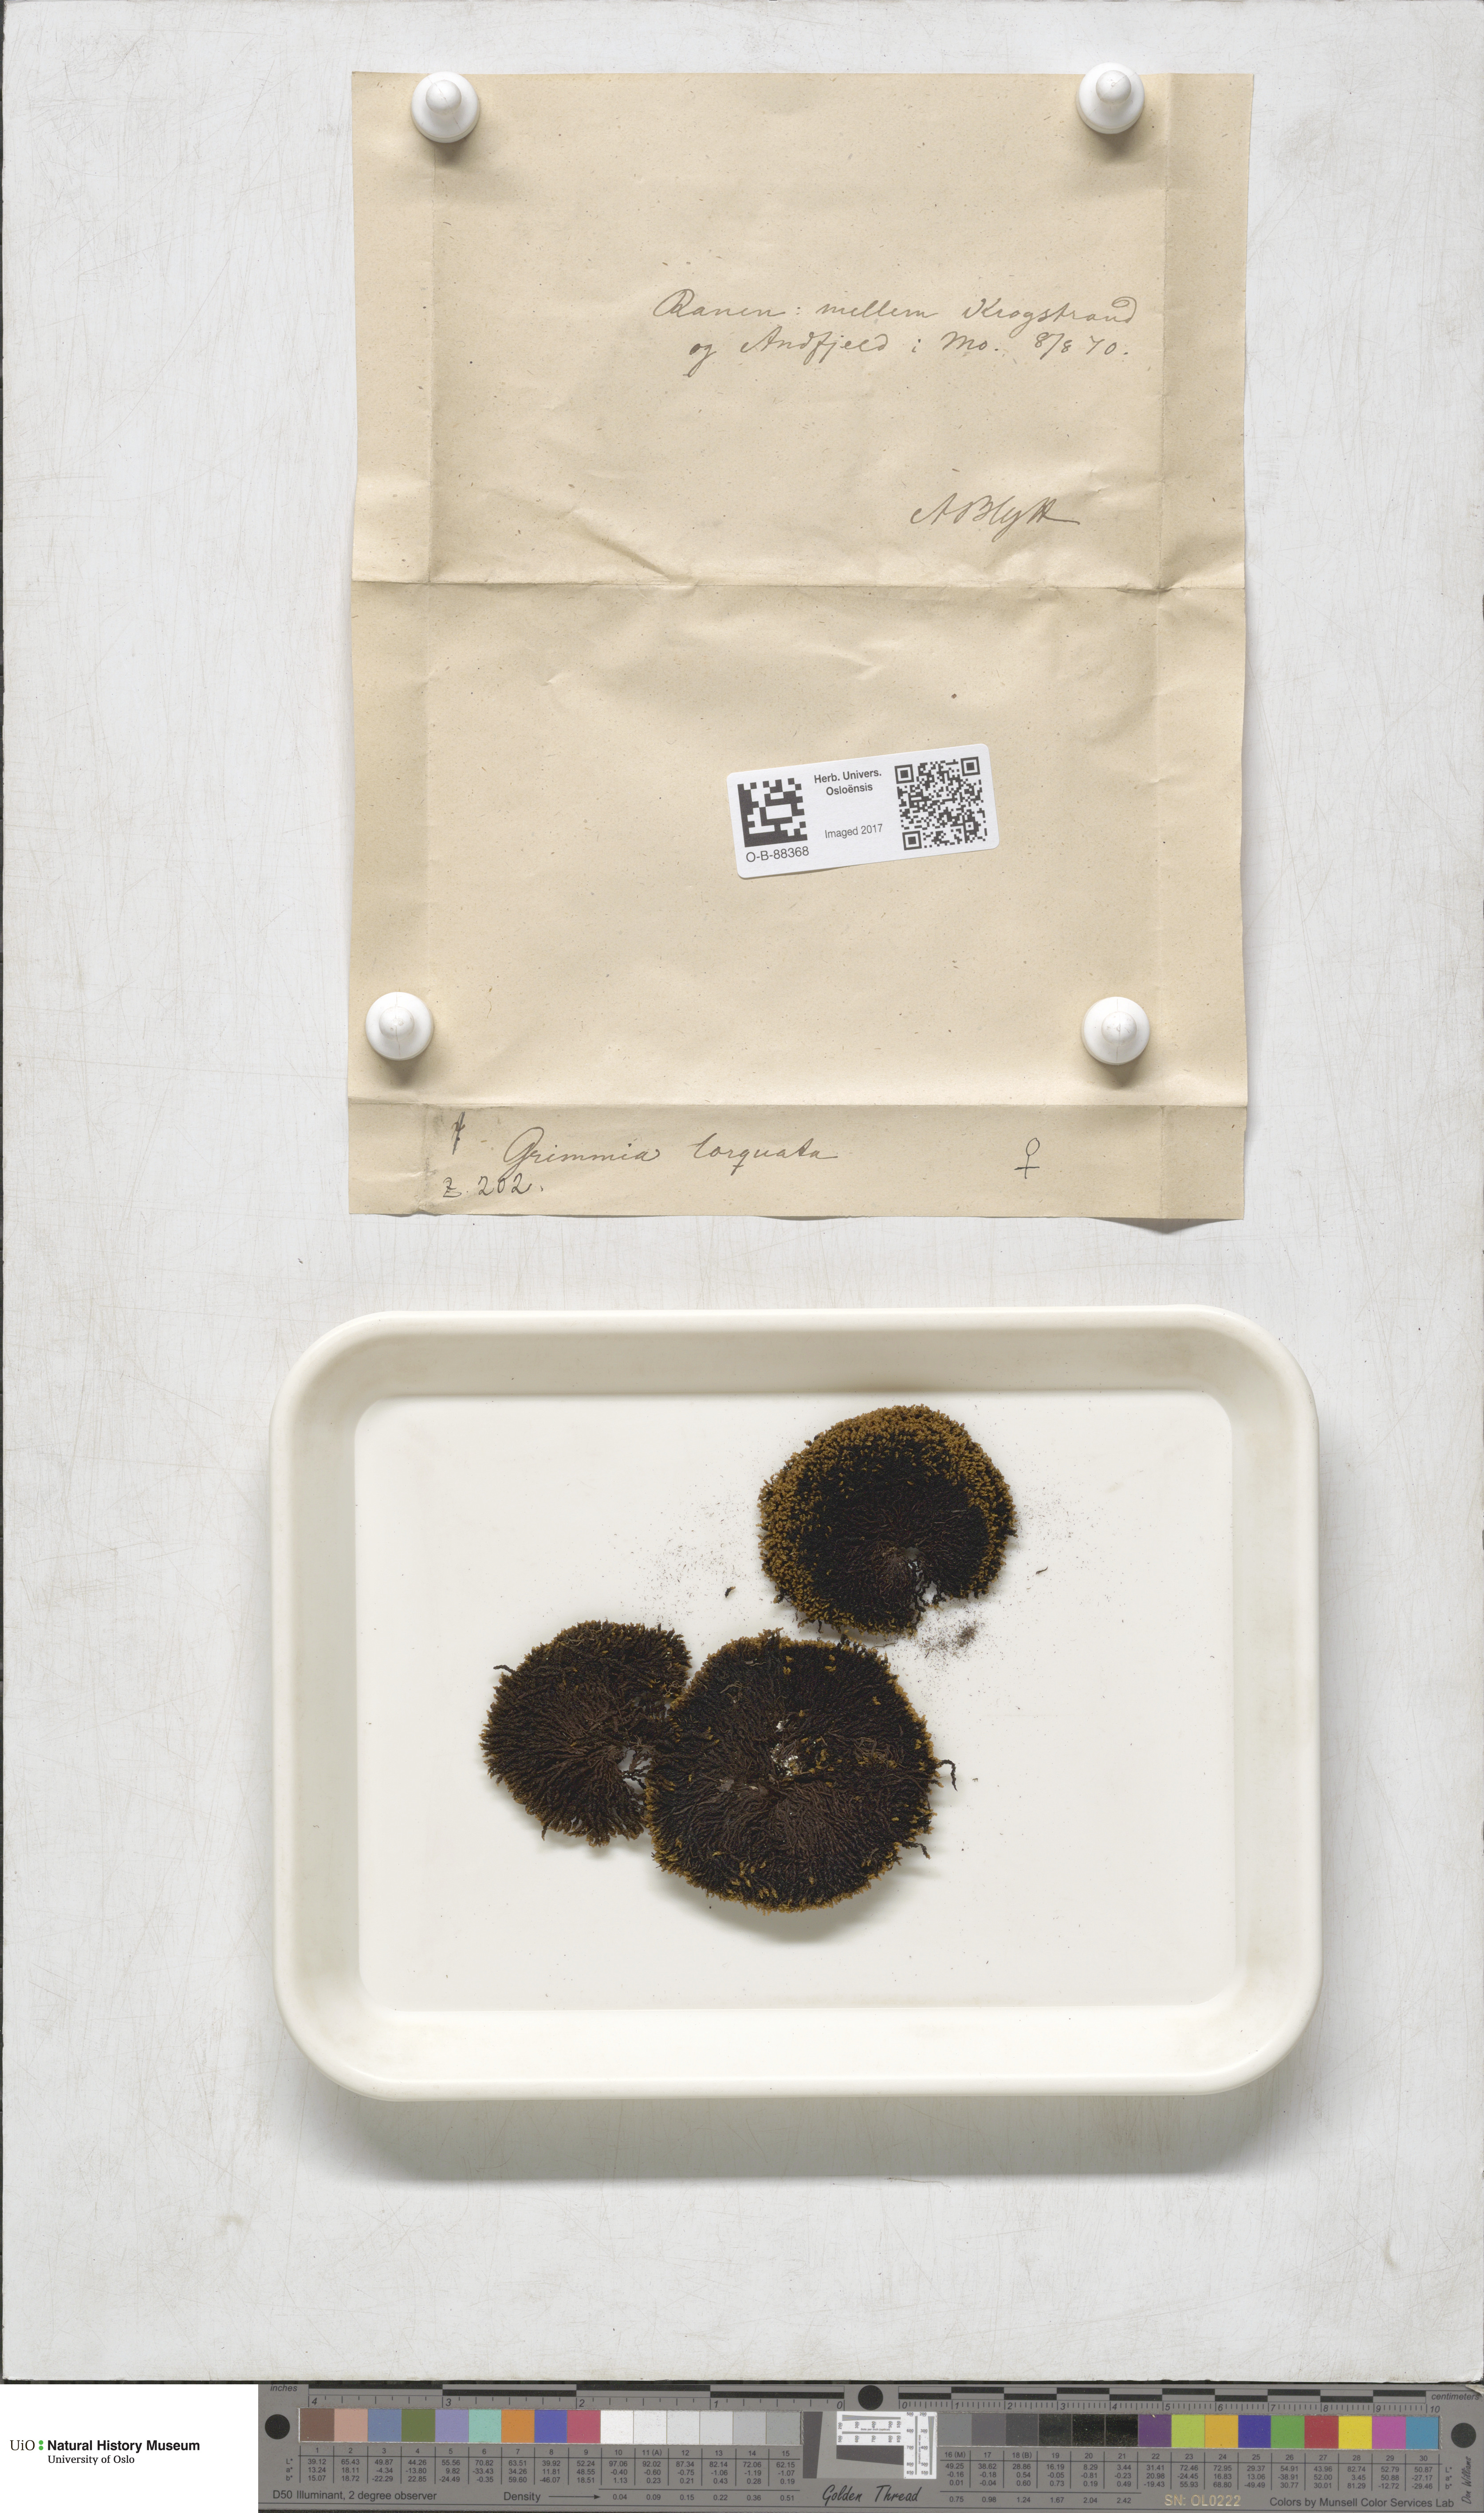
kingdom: Plantae
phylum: Bryophyta
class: Bryopsida
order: Grimmiales
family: Grimmiaceae
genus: Grimmia
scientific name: Grimmia torquata
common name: Twisted grimmia
